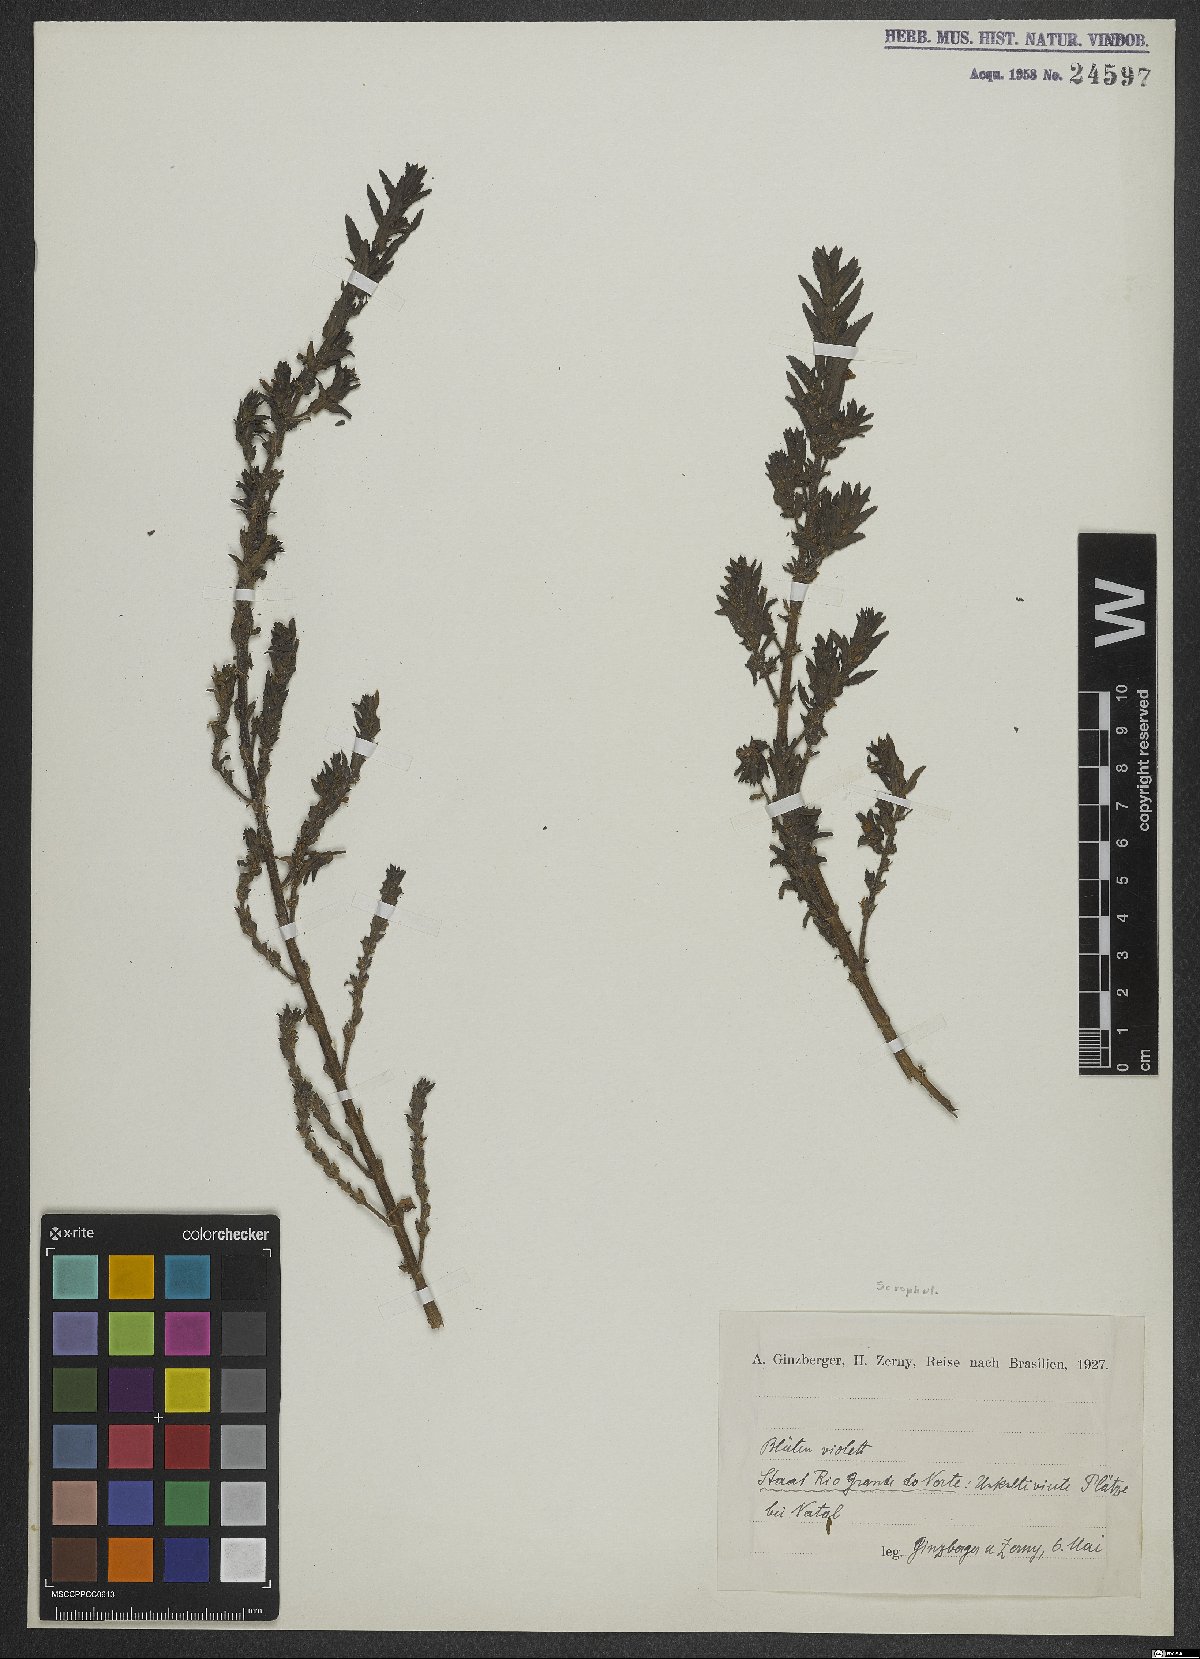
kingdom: Plantae
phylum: Tracheophyta
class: Magnoliopsida
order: Lamiales
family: Scrophulariaceae
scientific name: Scrophulariaceae
